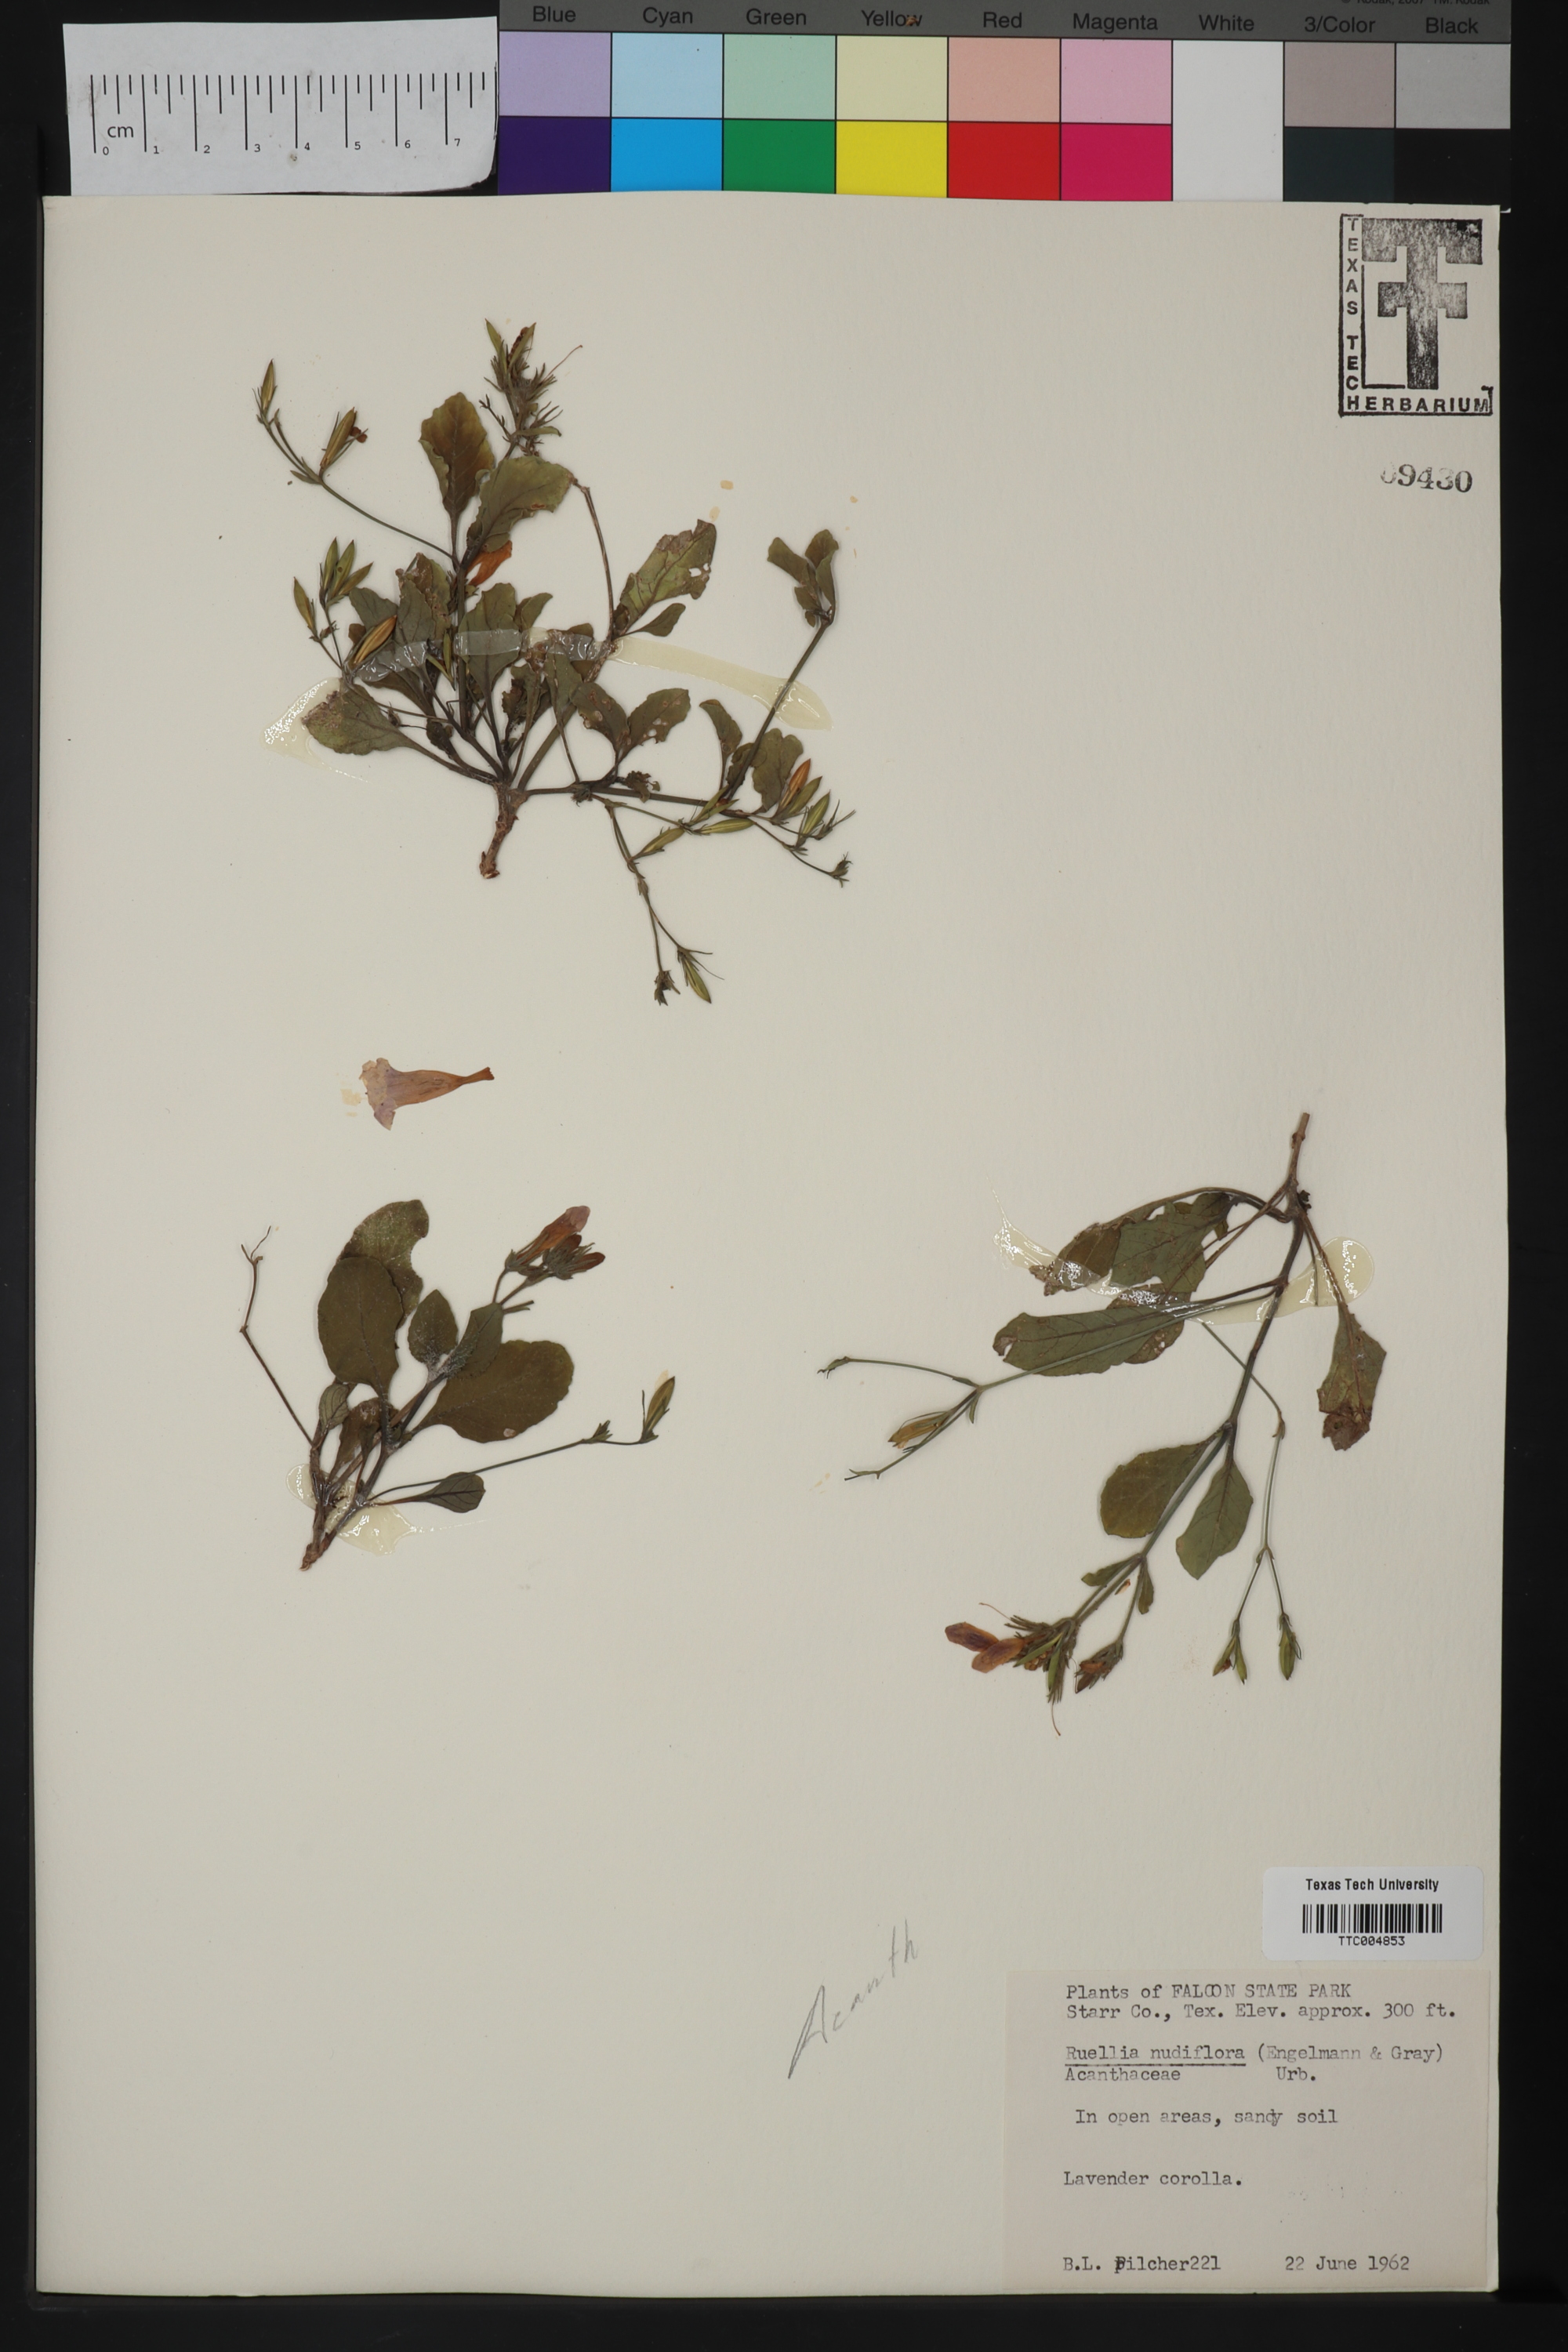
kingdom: Plantae
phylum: Tracheophyta
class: Magnoliopsida
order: Lamiales
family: Acanthaceae
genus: Ruellia
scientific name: Ruellia ciliatiflora
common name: Hairyflower wild petunia
